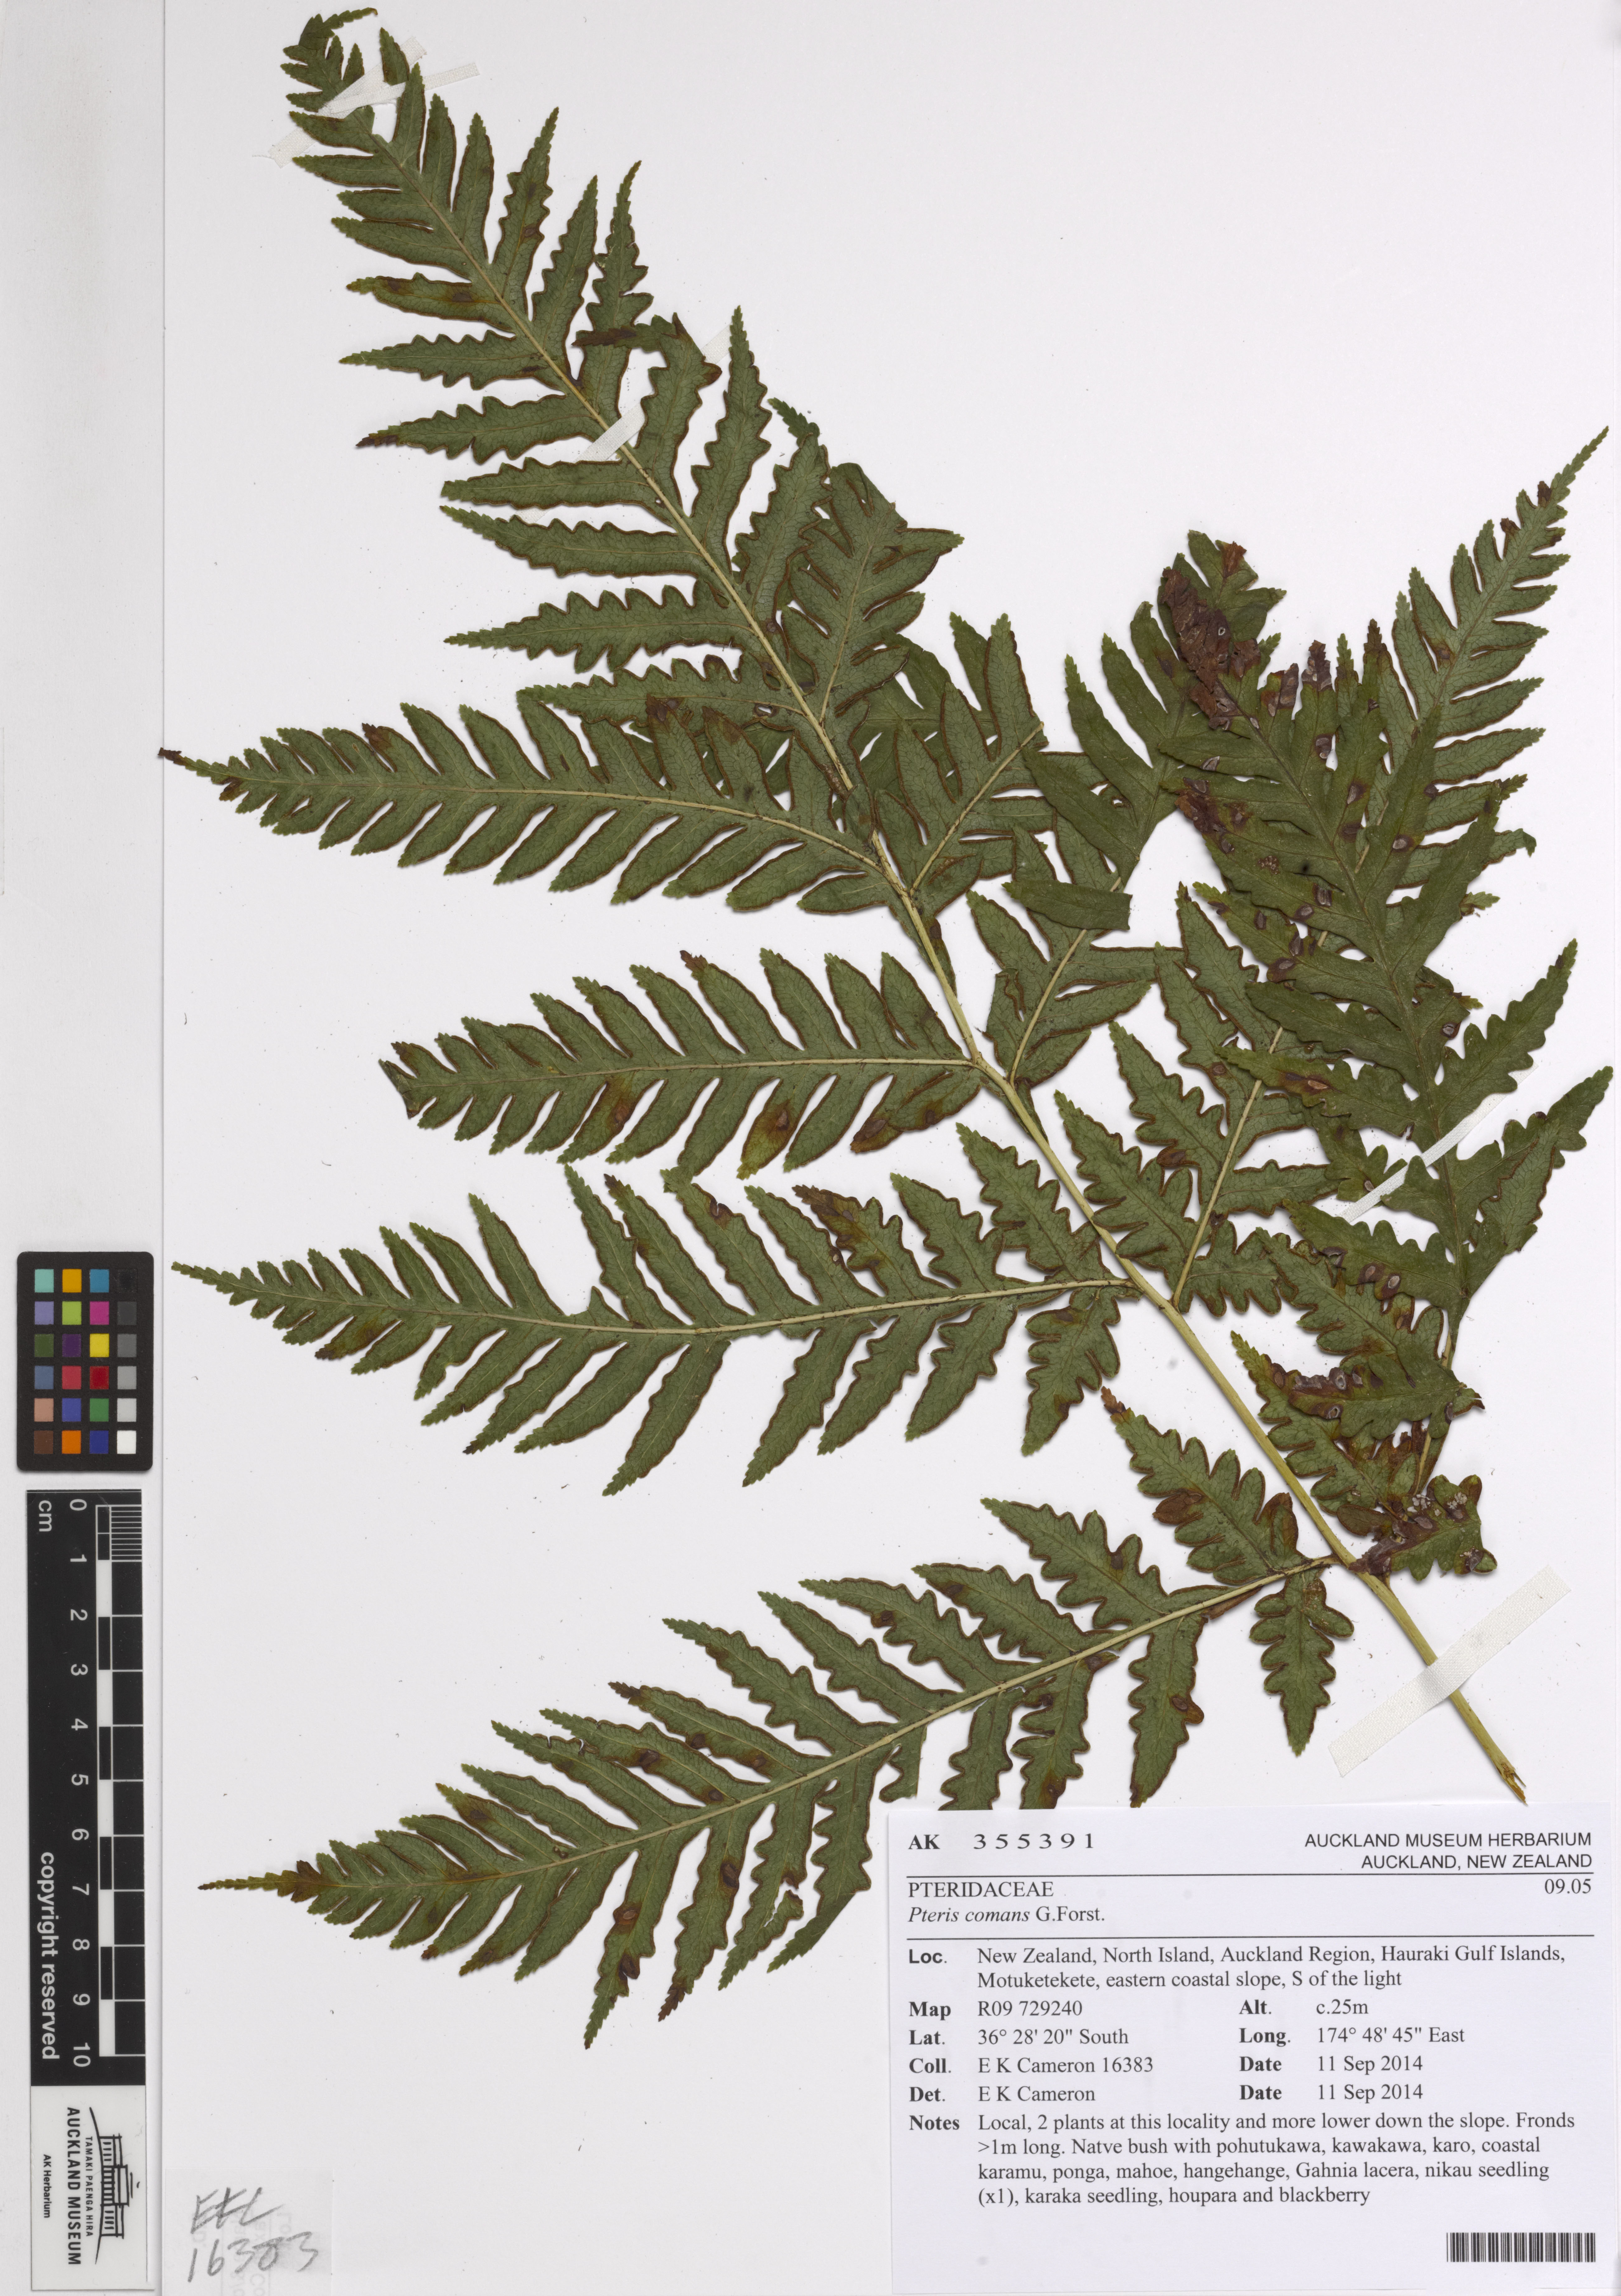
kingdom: Plantae
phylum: Tracheophyta
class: Polypodiopsida
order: Polypodiales
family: Pteridaceae
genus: Pteris
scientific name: Pteris comans
